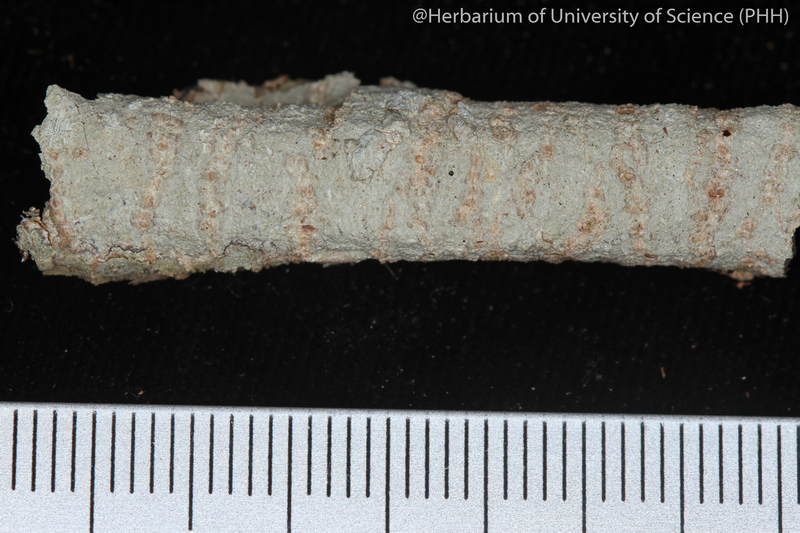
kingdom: Fungi
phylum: Ascomycota
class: Lecanoromycetes
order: Ostropales
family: Graphidaceae
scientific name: Graphidaceae
